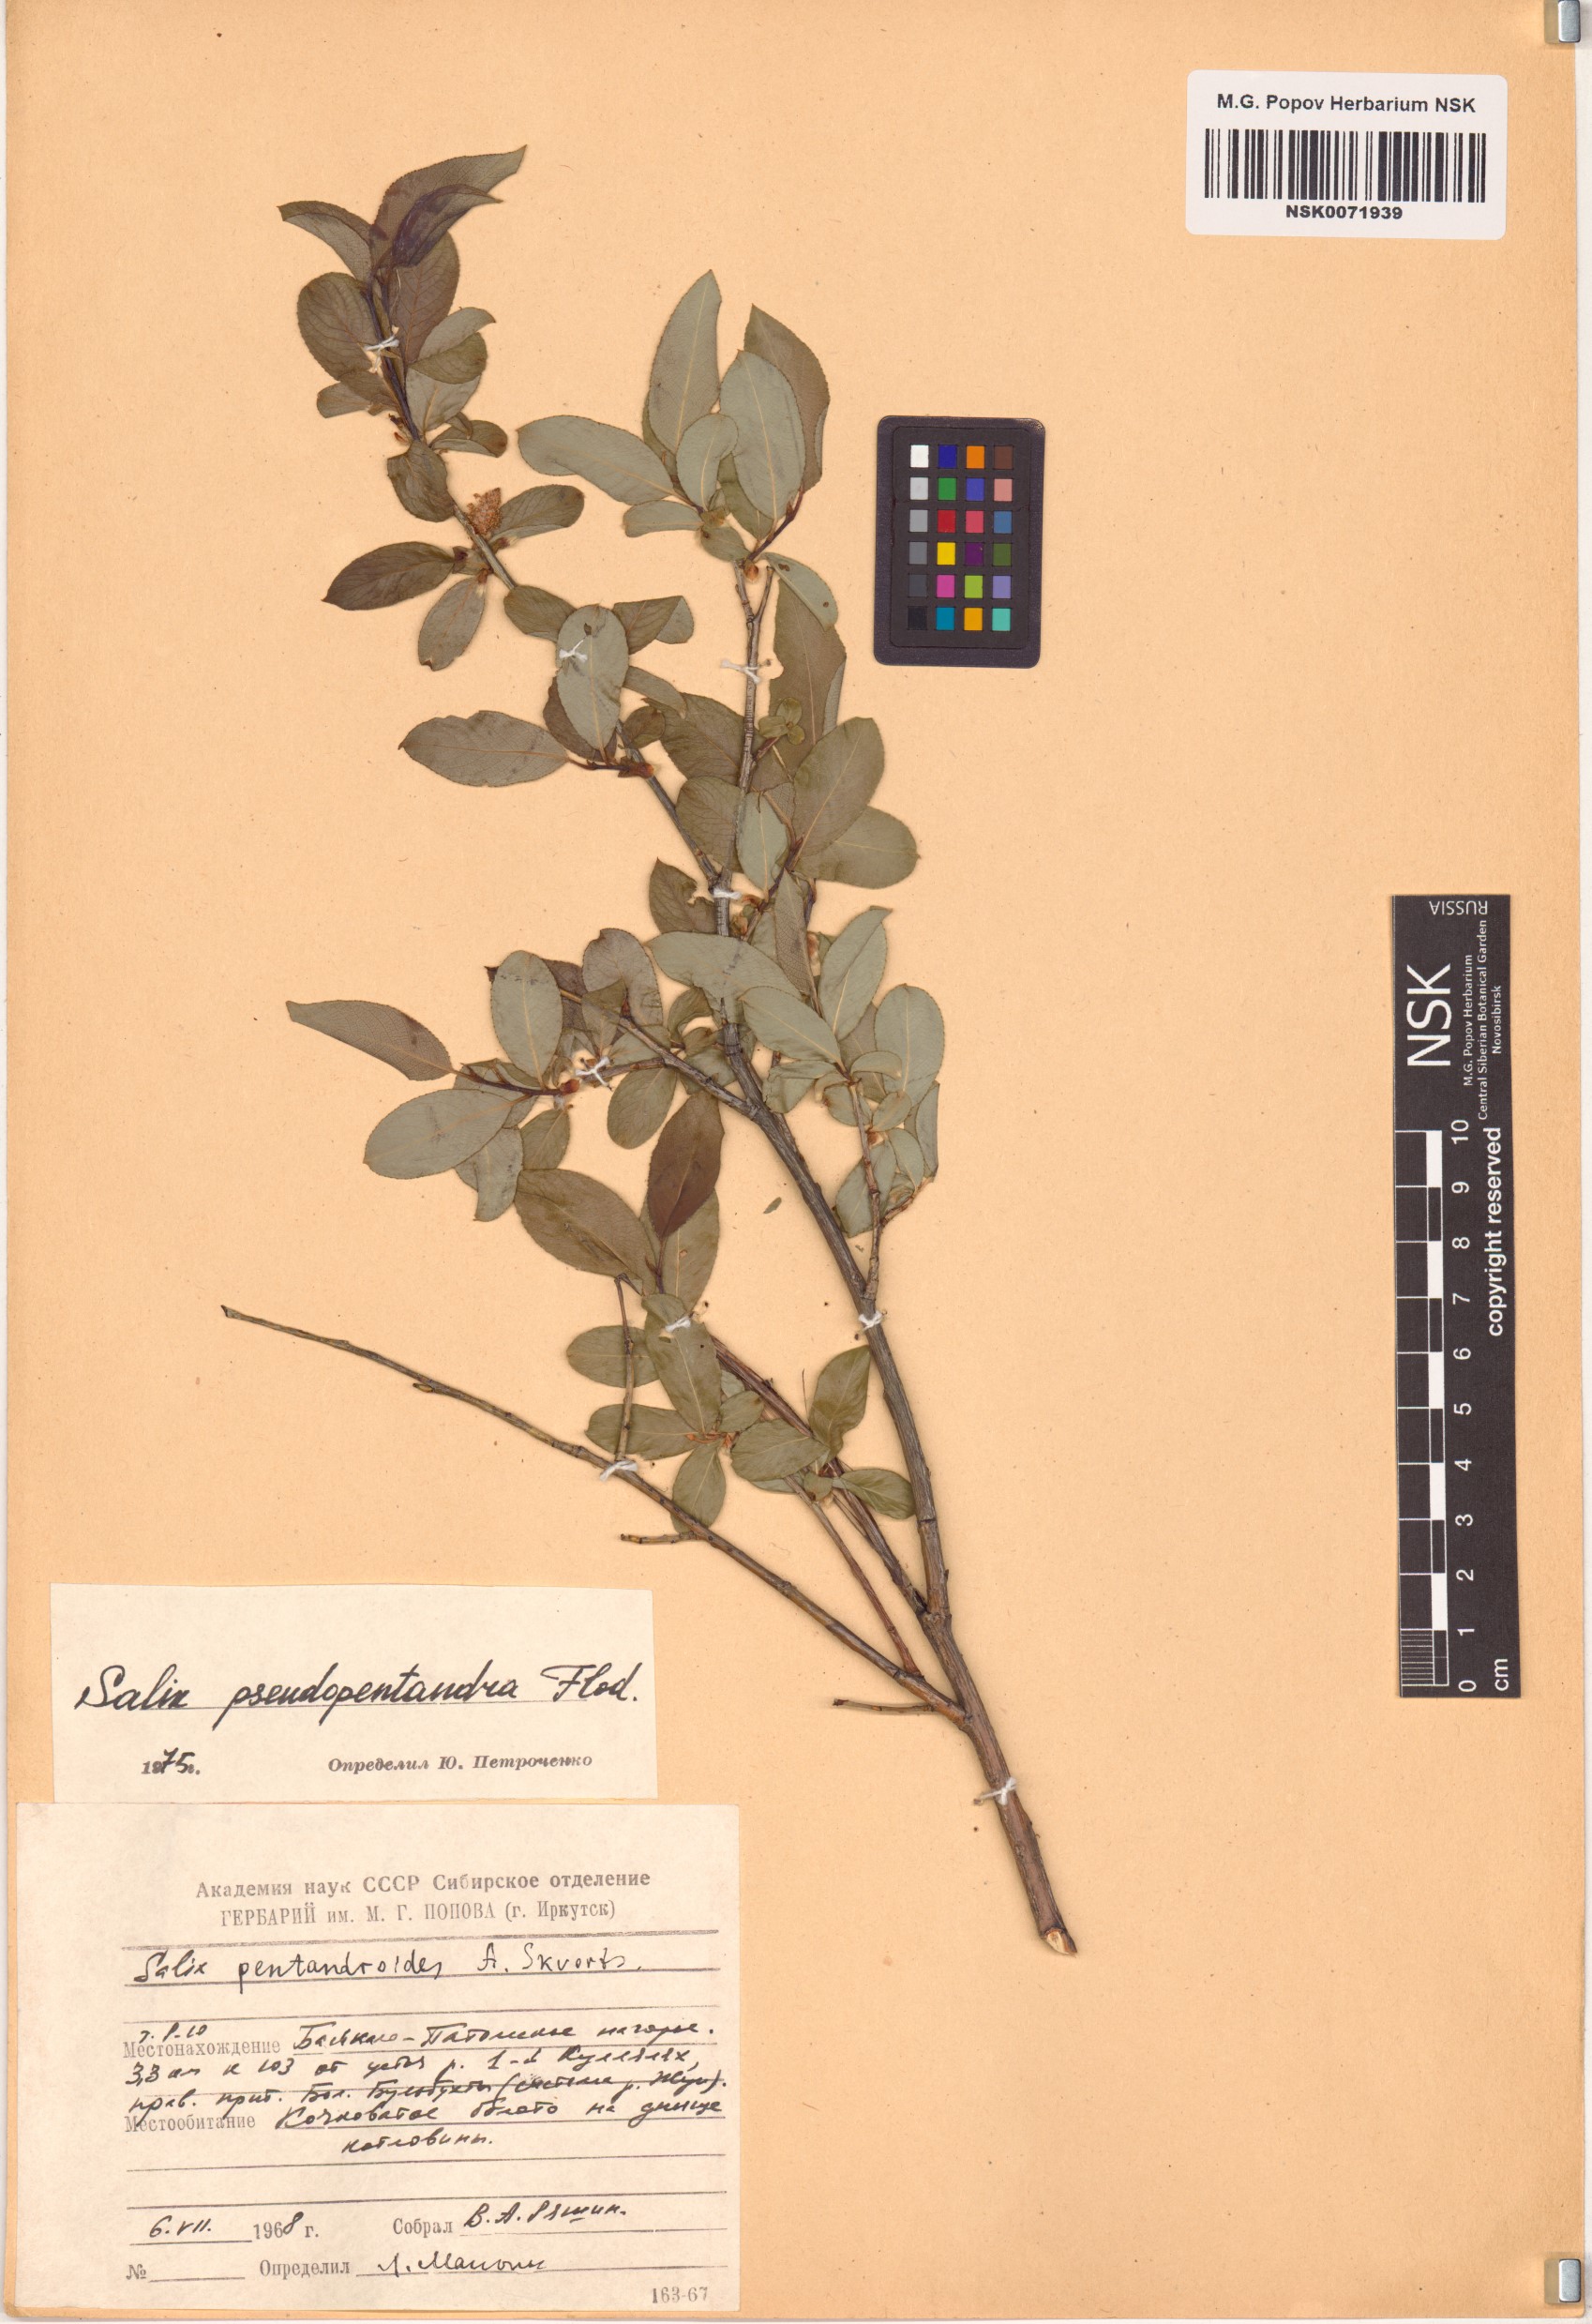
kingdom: Plantae
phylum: Tracheophyta
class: Magnoliopsida
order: Malpighiales
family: Salicaceae
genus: Salix
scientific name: Salix pseudopentandra
